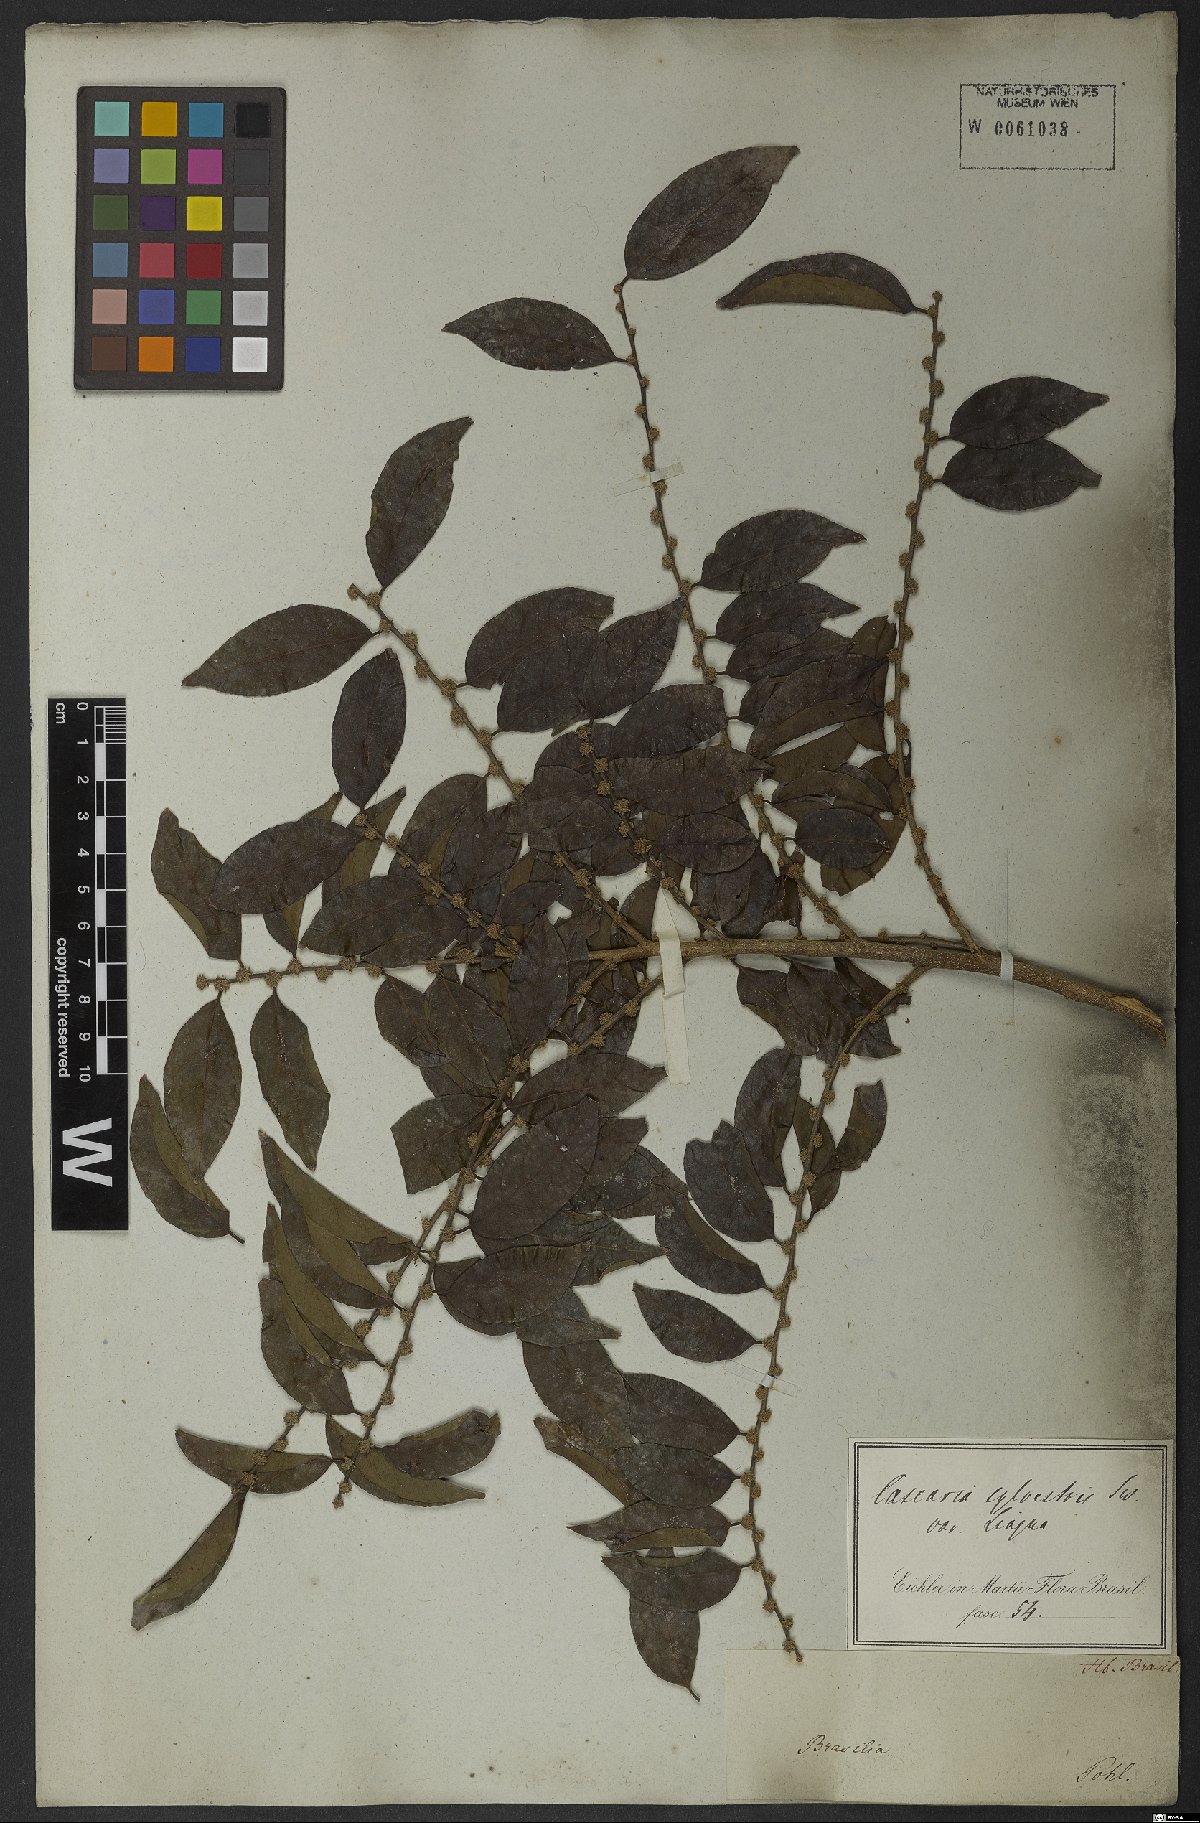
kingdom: Plantae
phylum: Tracheophyta
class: Magnoliopsida
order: Malpighiales
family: Salicaceae
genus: Casearia
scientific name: Casearia sylvestris
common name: Wild sage
